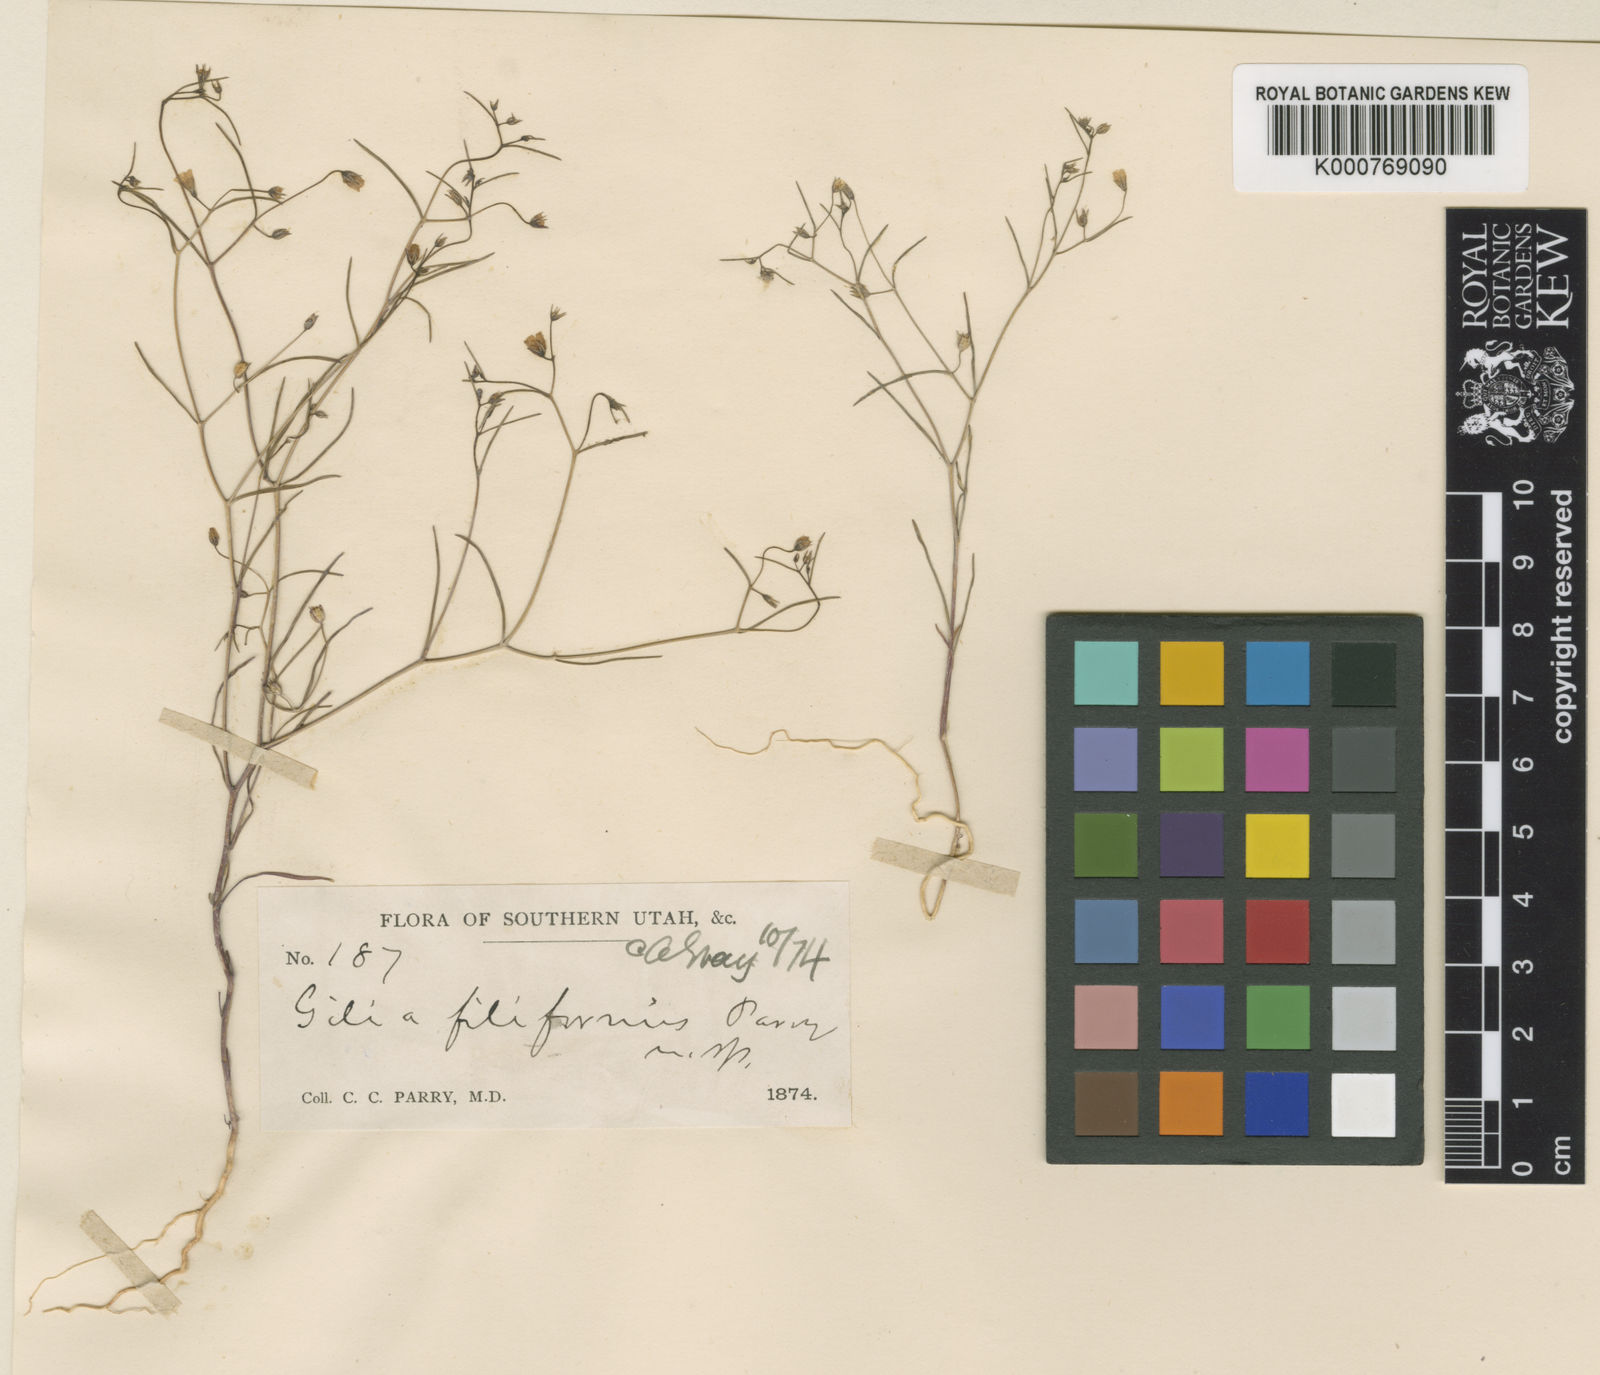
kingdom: Plantae
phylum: Tracheophyta
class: Magnoliopsida
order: Ericales
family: Polemoniaceae
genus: Linanthus
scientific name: Linanthus filiformis
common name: Yellow gilia
